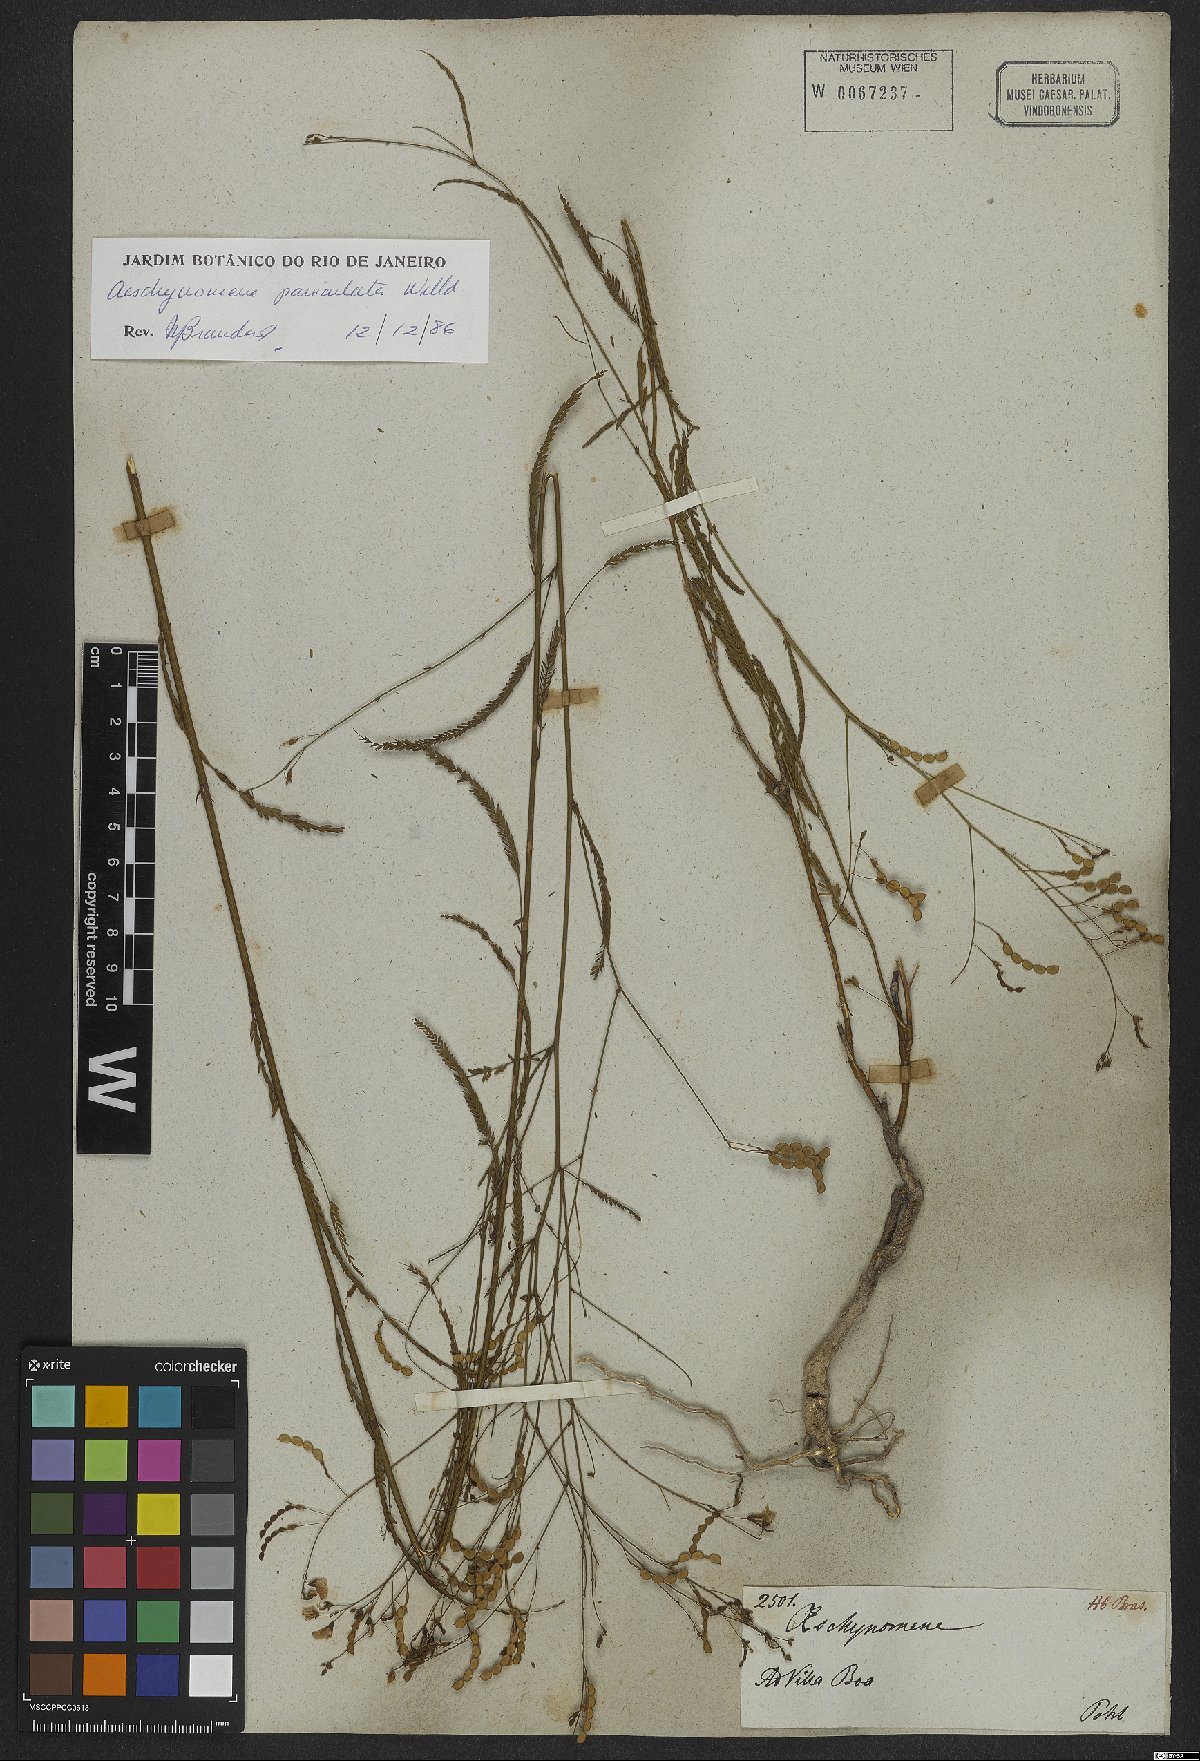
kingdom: Plantae
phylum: Tracheophyta
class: Magnoliopsida
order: Fabales
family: Fabaceae
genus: Ctenodon
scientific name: Ctenodon paniculatus
